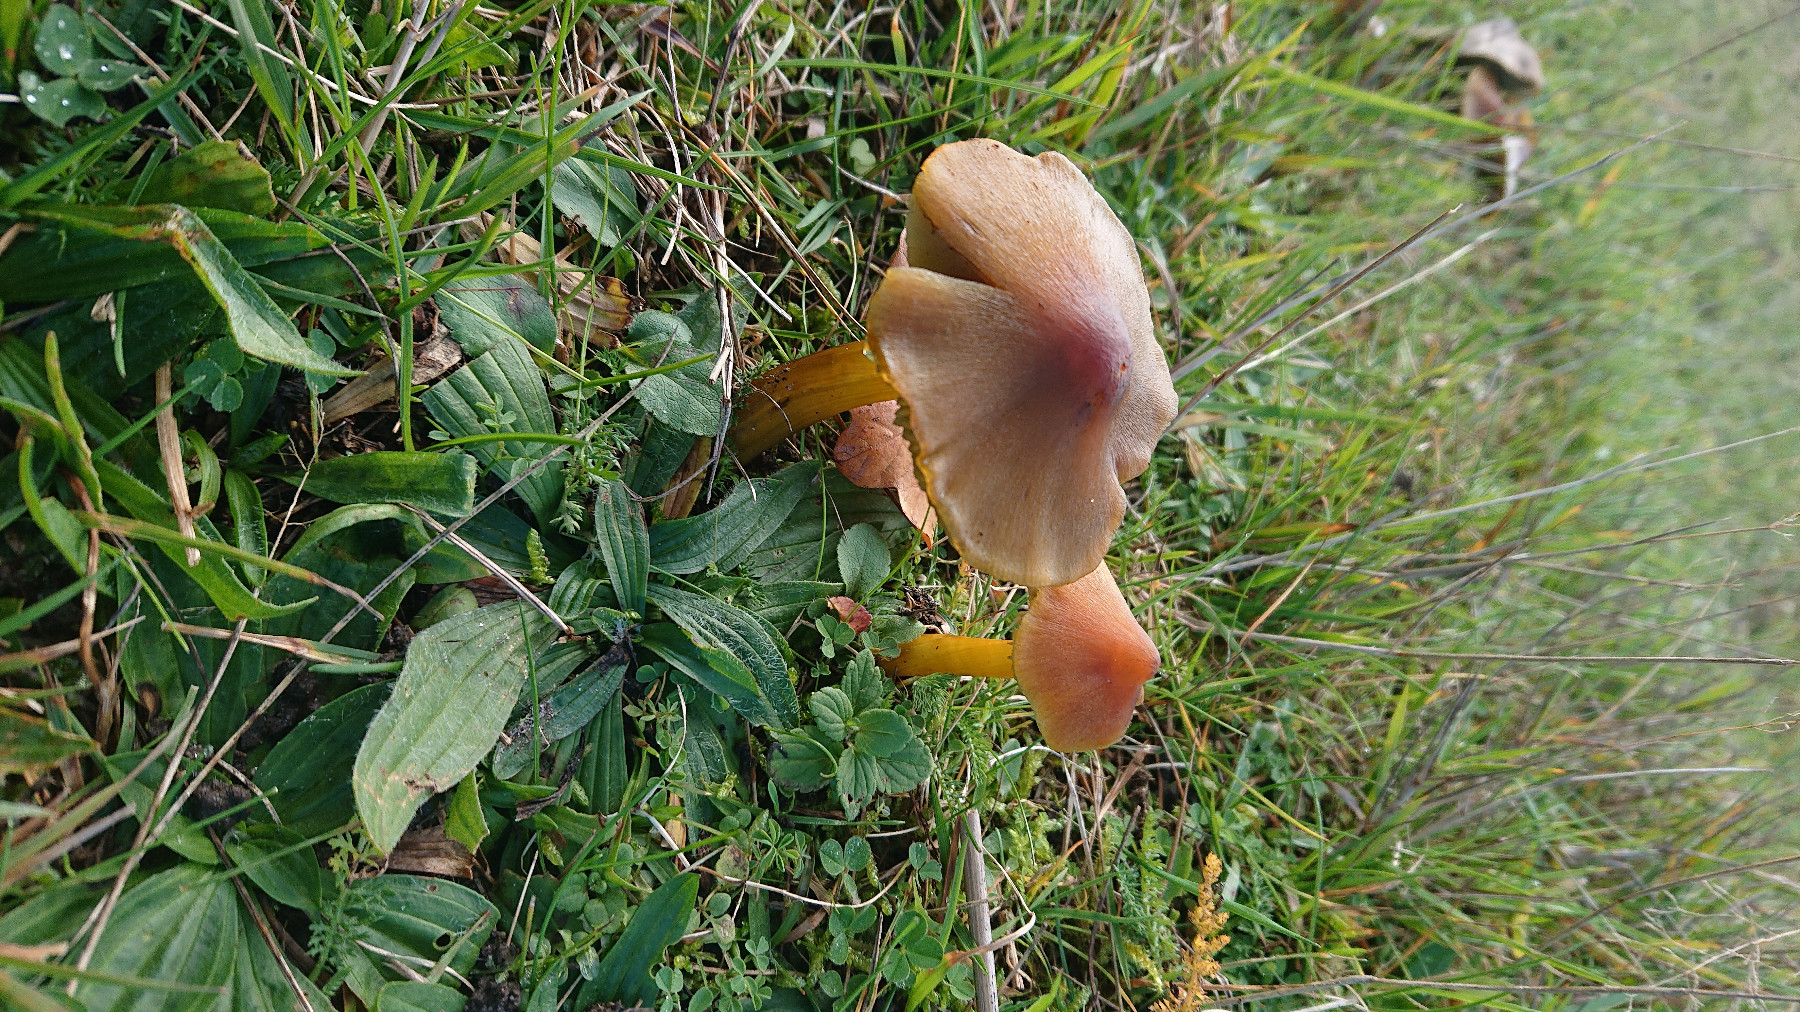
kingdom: Fungi
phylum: Basidiomycota
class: Agaricomycetes
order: Agaricales
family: Hygrophoraceae
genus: Hygrocybe
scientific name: Hygrocybe conica
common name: kegle-vokshat
